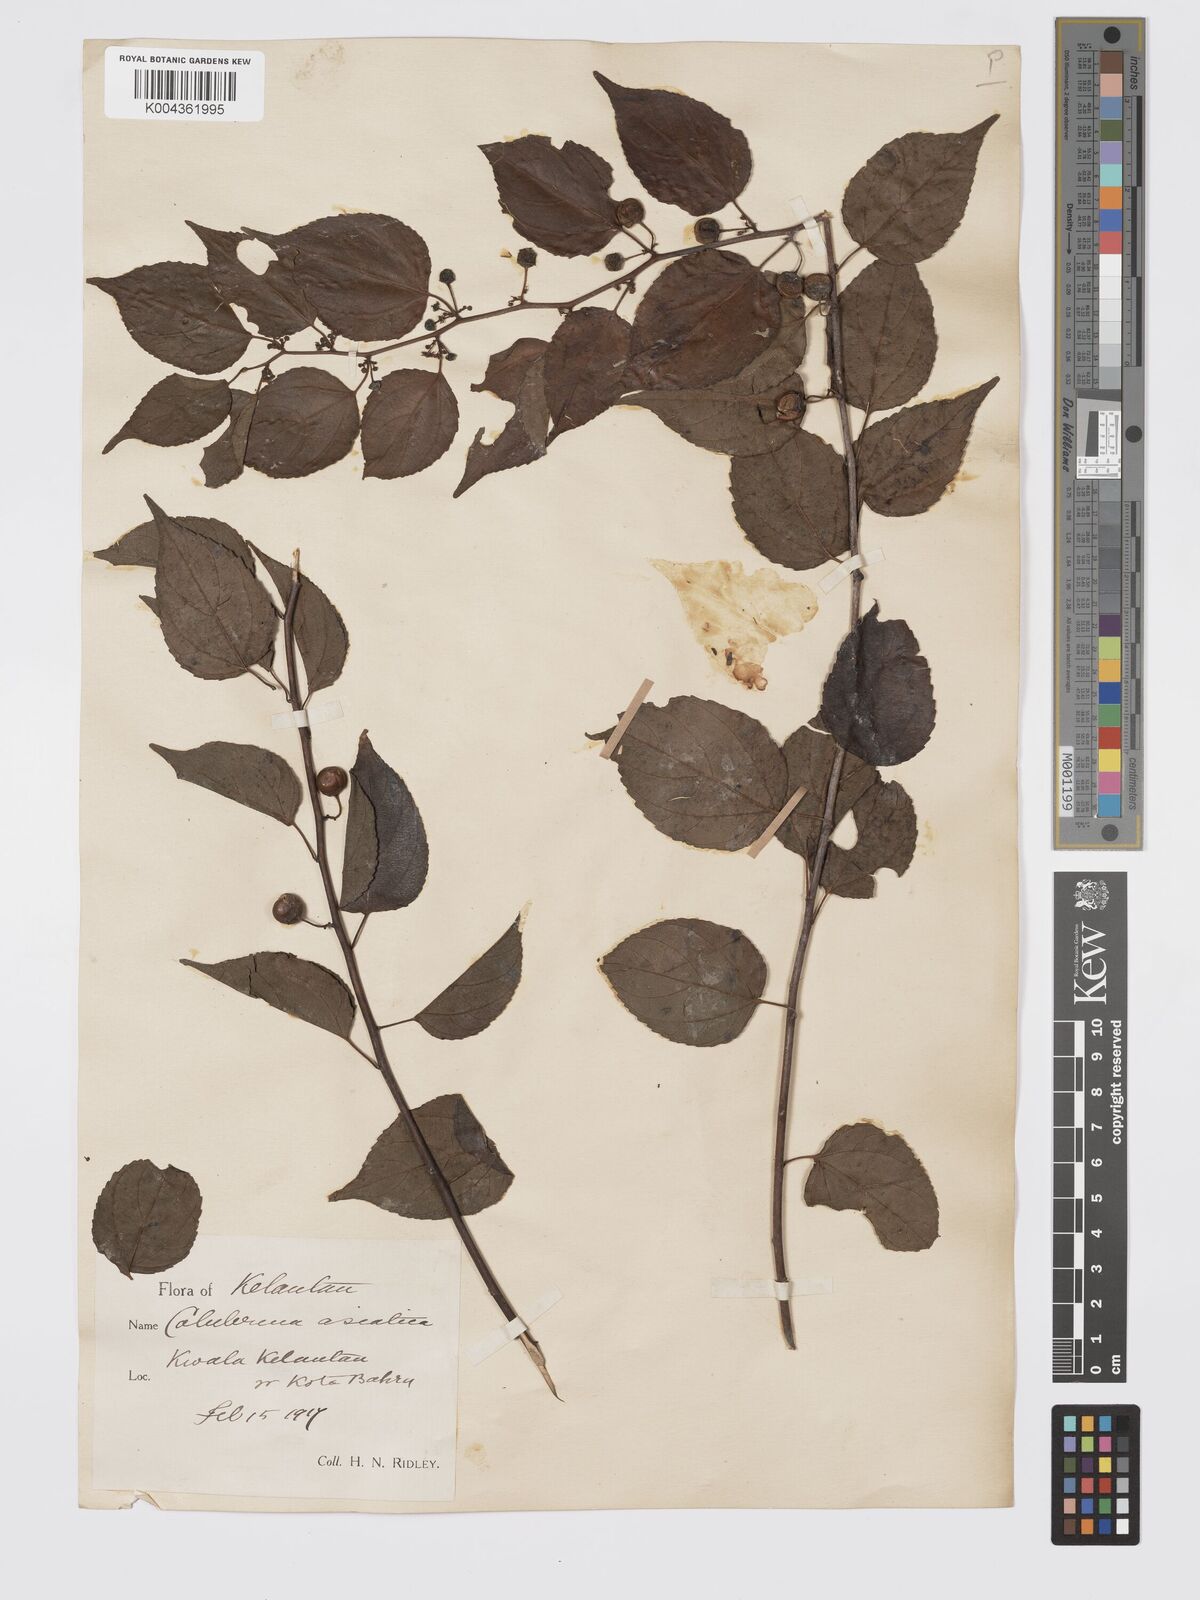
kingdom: Plantae
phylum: Tracheophyta
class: Magnoliopsida
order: Rosales
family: Rhamnaceae
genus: Colubrina
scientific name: Colubrina asiatica
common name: Asian nakedwood
